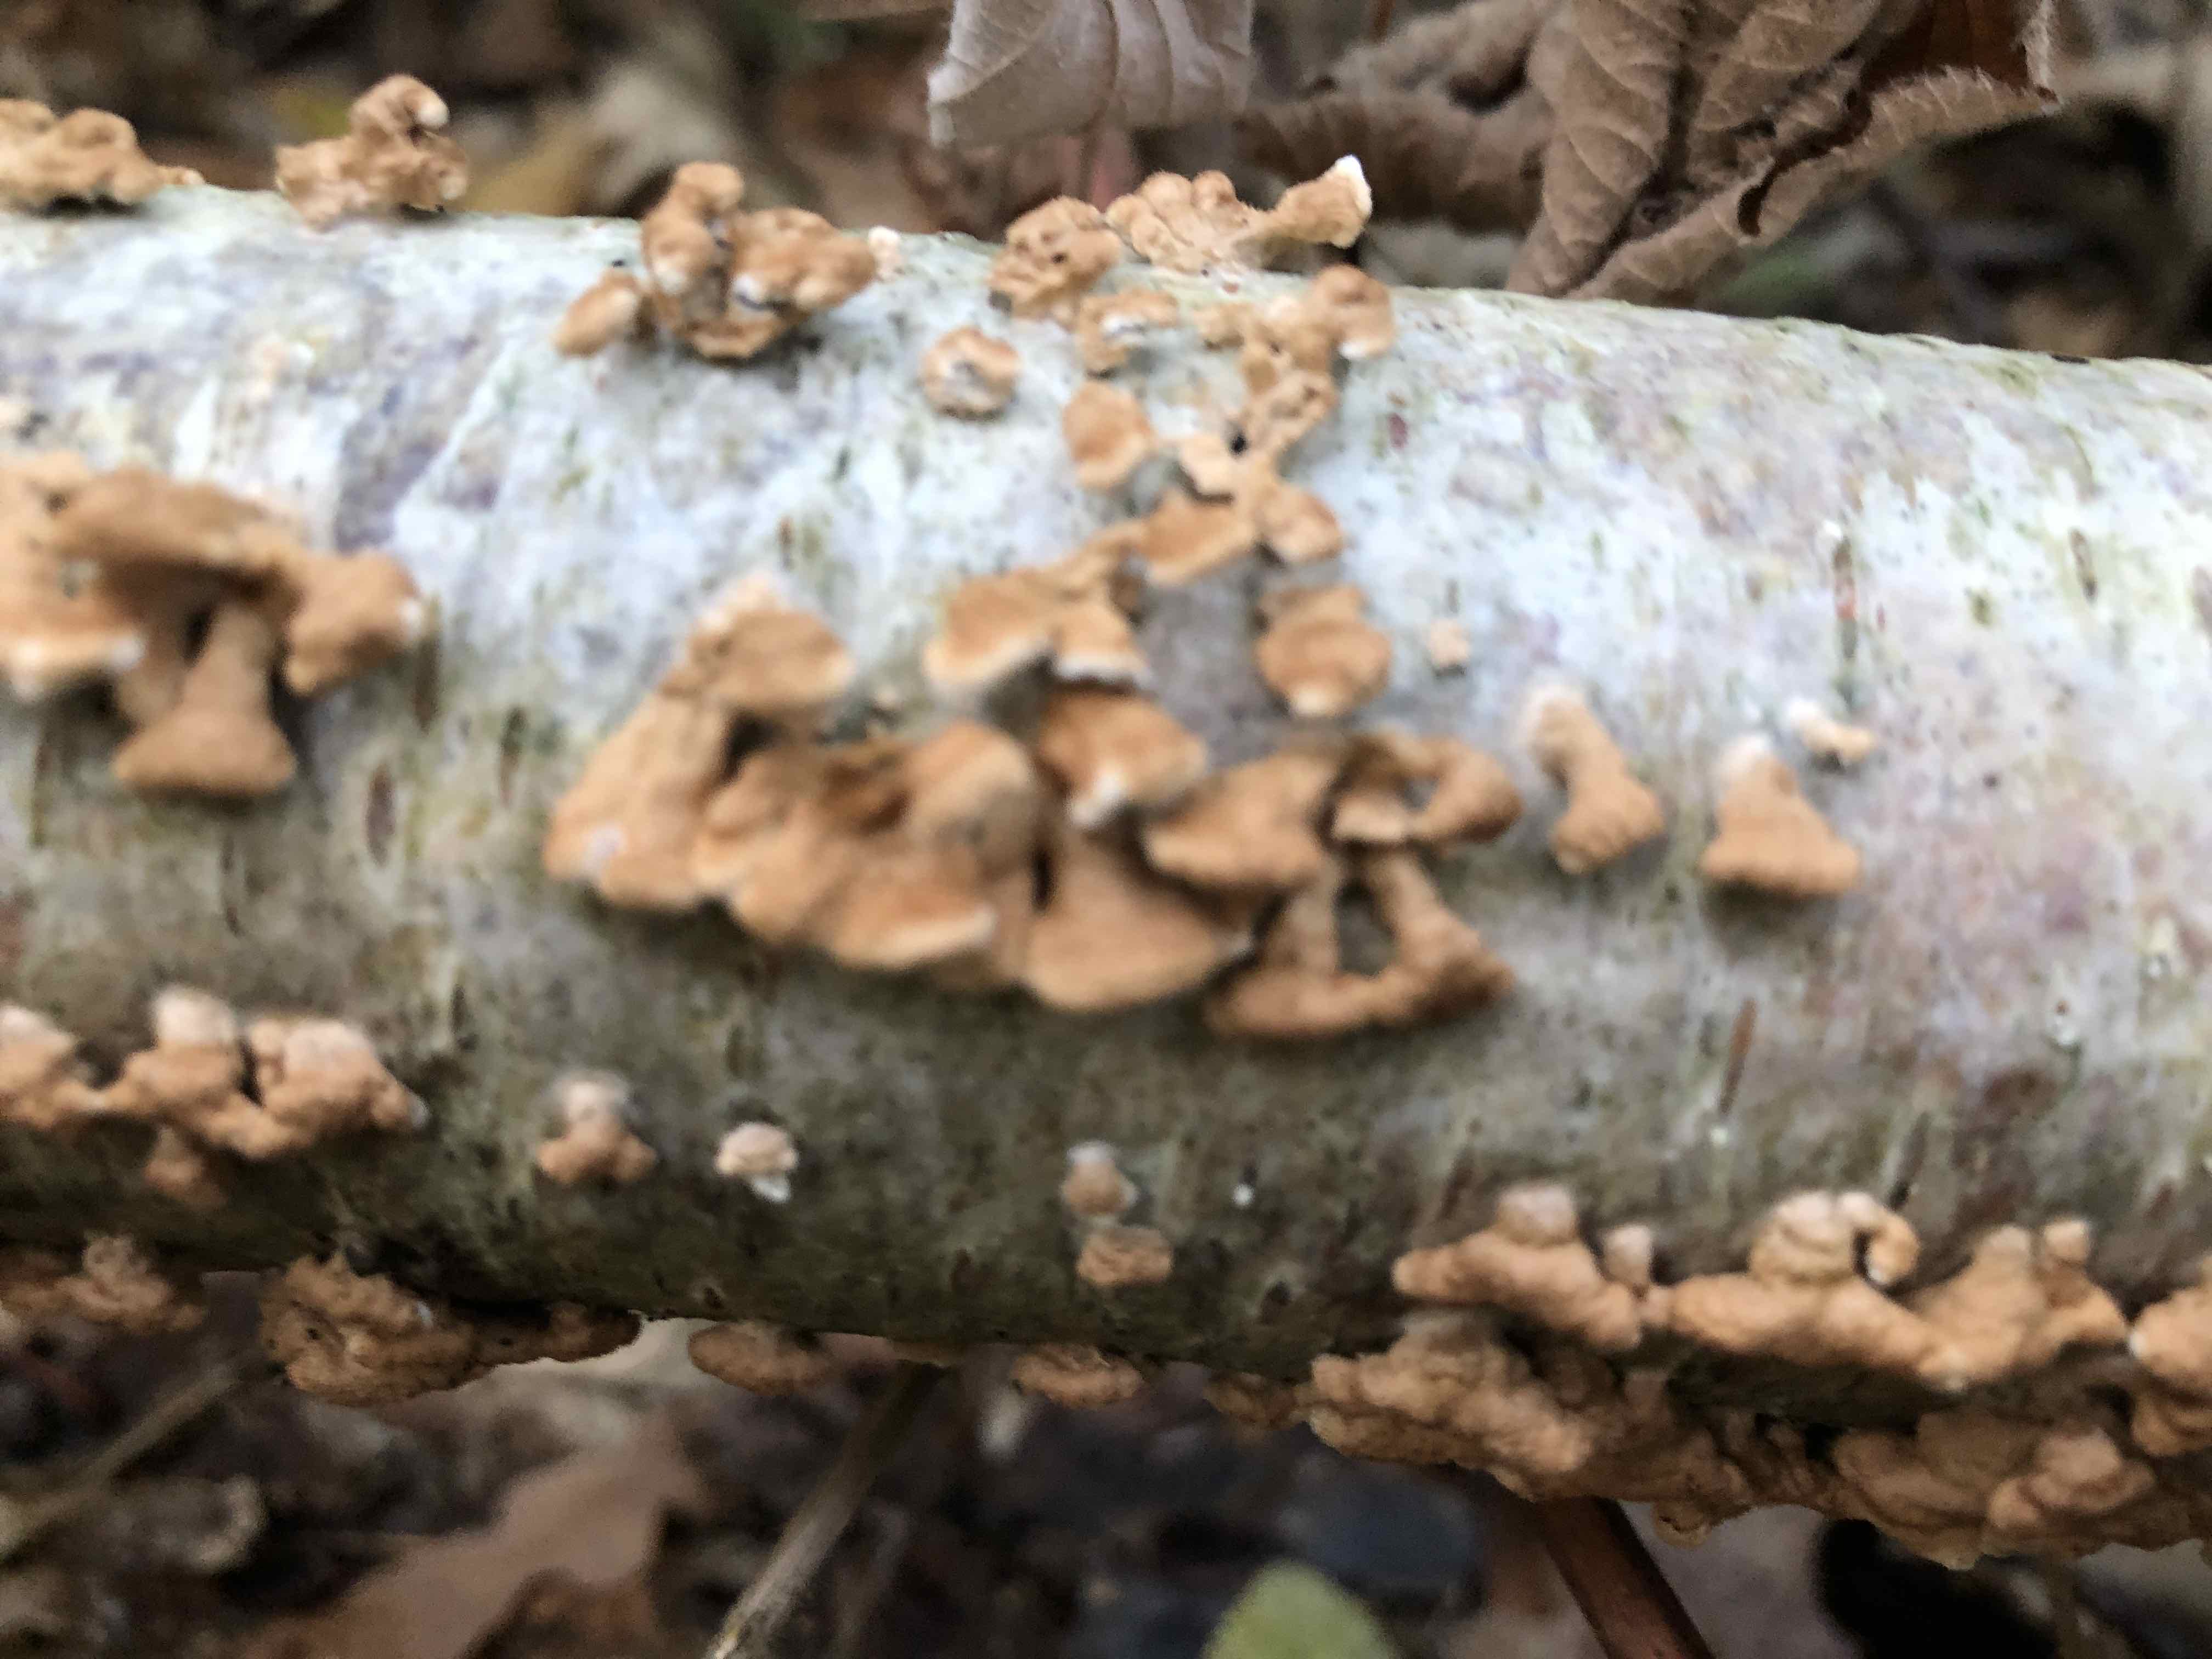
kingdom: Fungi
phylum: Basidiomycota
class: Agaricomycetes
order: Amylocorticiales
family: Amylocorticiaceae
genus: Plicaturopsis
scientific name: Plicaturopsis crispa
